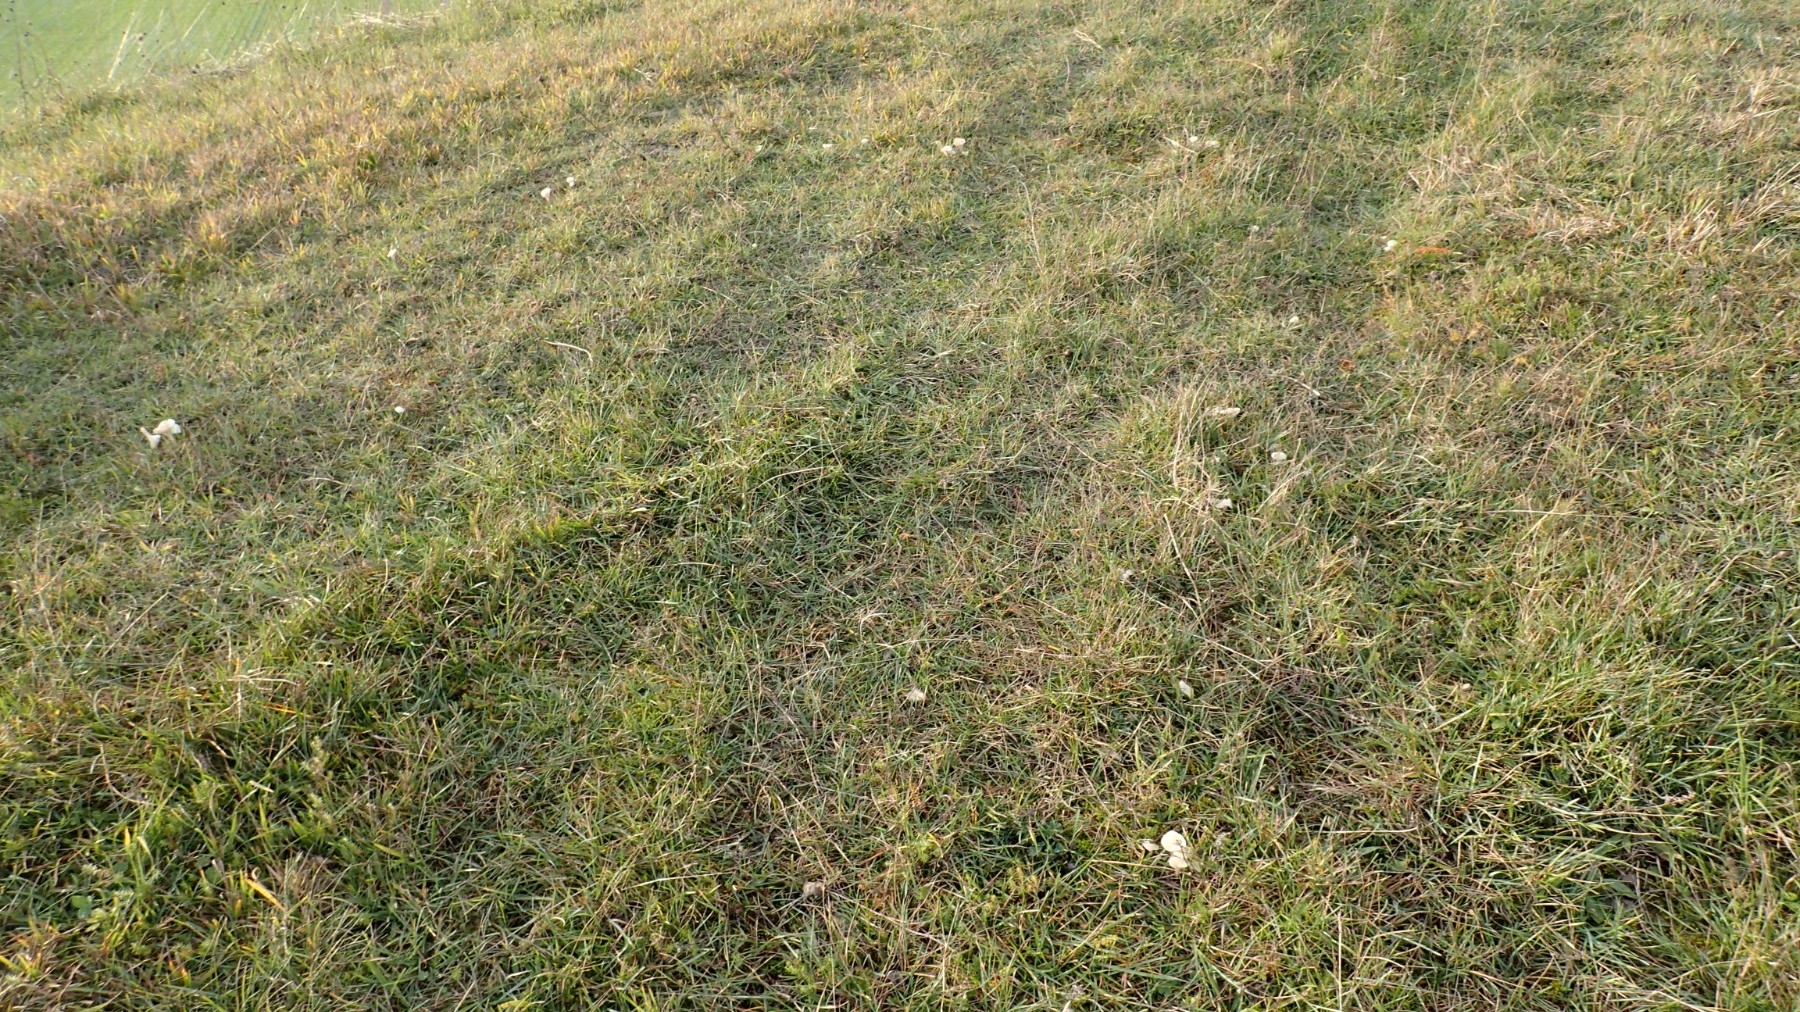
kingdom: Fungi
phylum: Basidiomycota
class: Agaricomycetes
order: Agaricales
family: Hygrophoraceae
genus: Cuphophyllus
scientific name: Cuphophyllus virgineus
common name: snehvid vokshat
